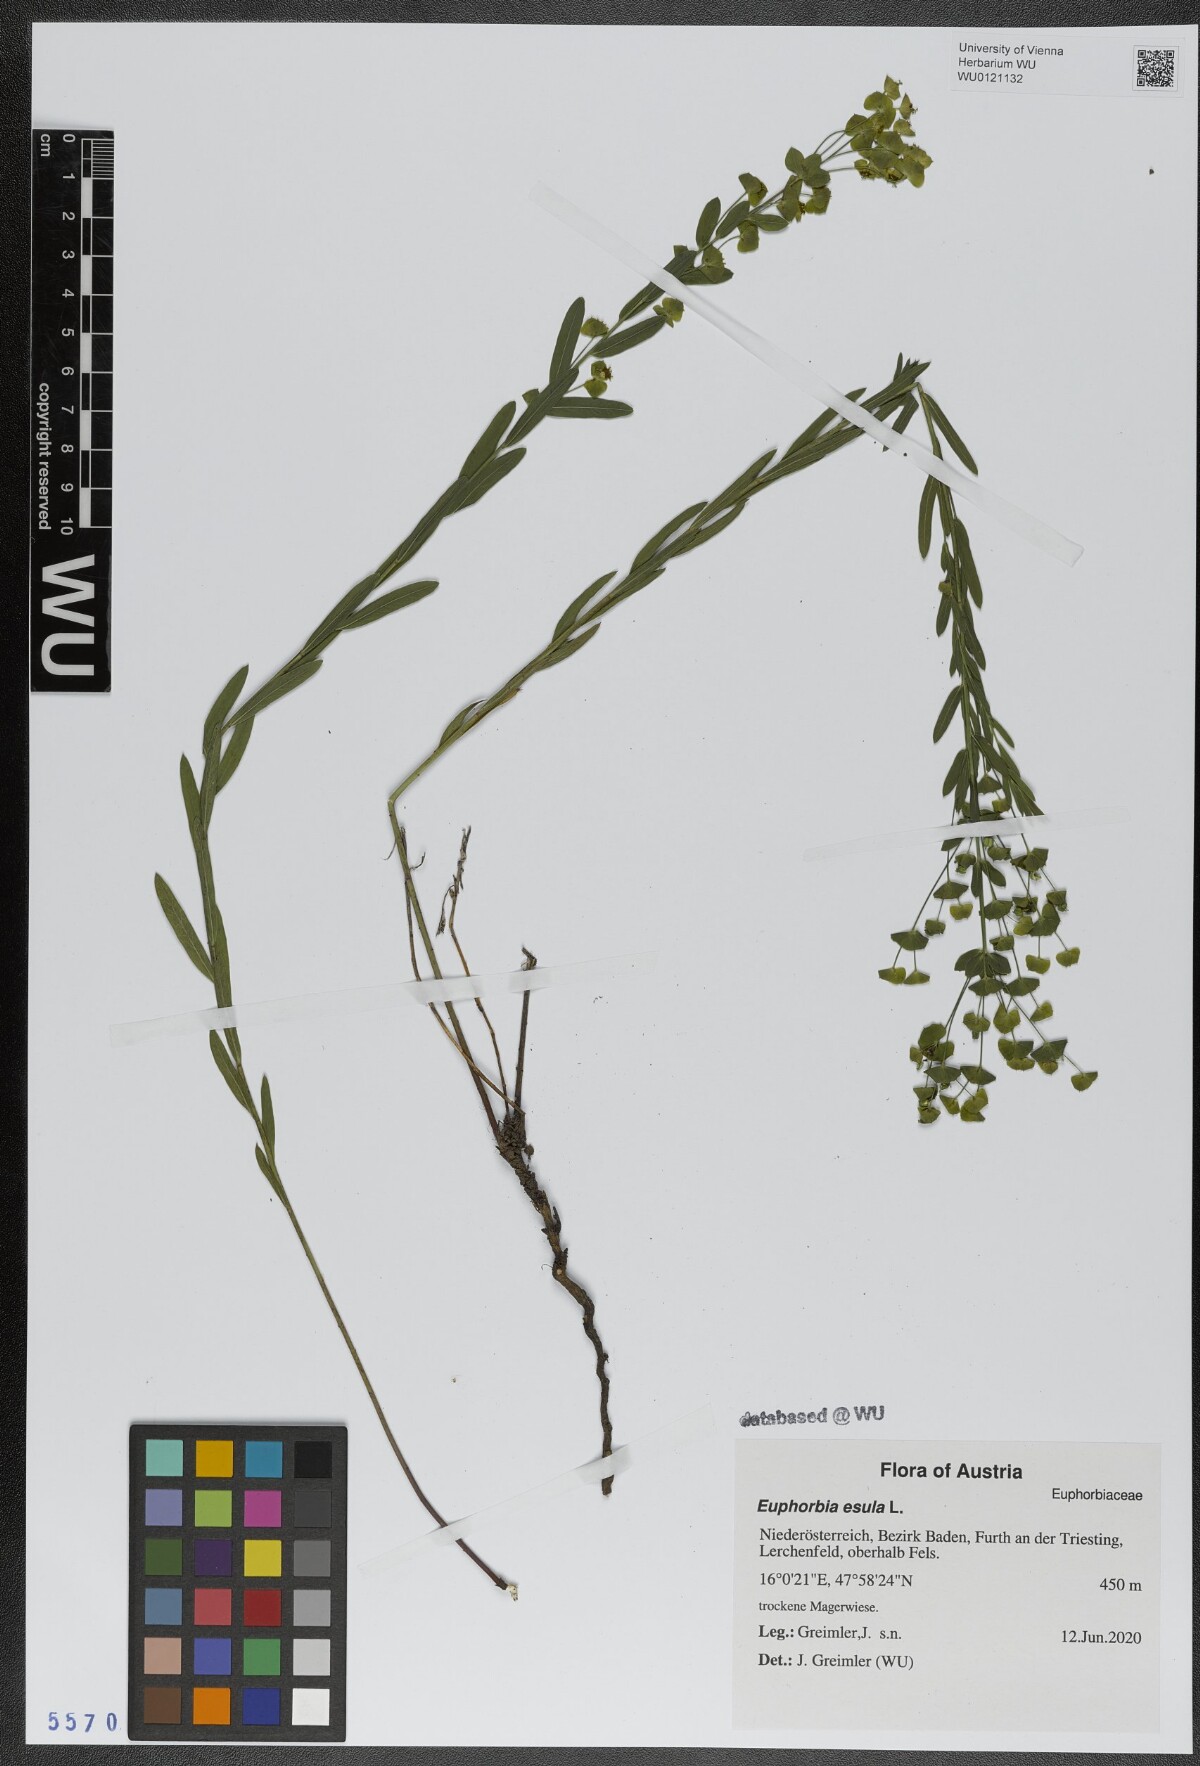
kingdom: Plantae
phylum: Tracheophyta
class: Magnoliopsida
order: Malpighiales
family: Euphorbiaceae
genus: Euphorbia
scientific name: Euphorbia esula
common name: Leafy spurge
